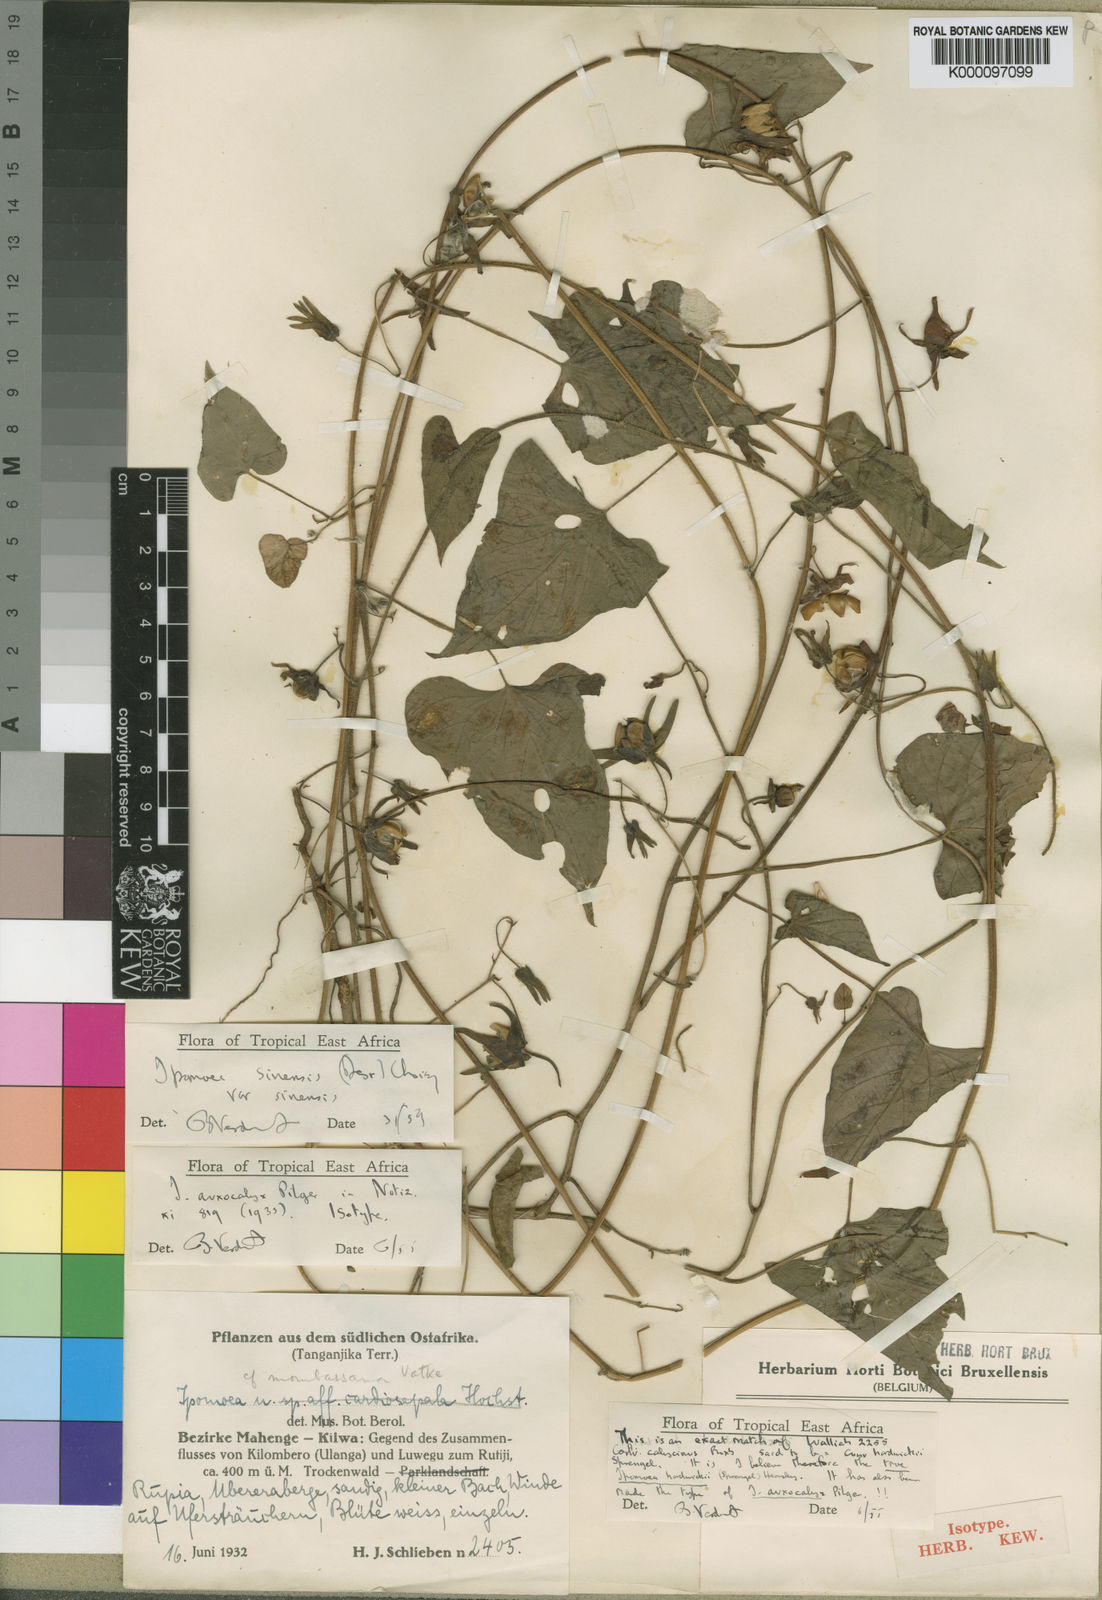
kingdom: Plantae
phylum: Tracheophyta
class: Magnoliopsida
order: Solanales
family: Convolvulaceae
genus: Ipomoea
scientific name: Ipomoea sinensis
